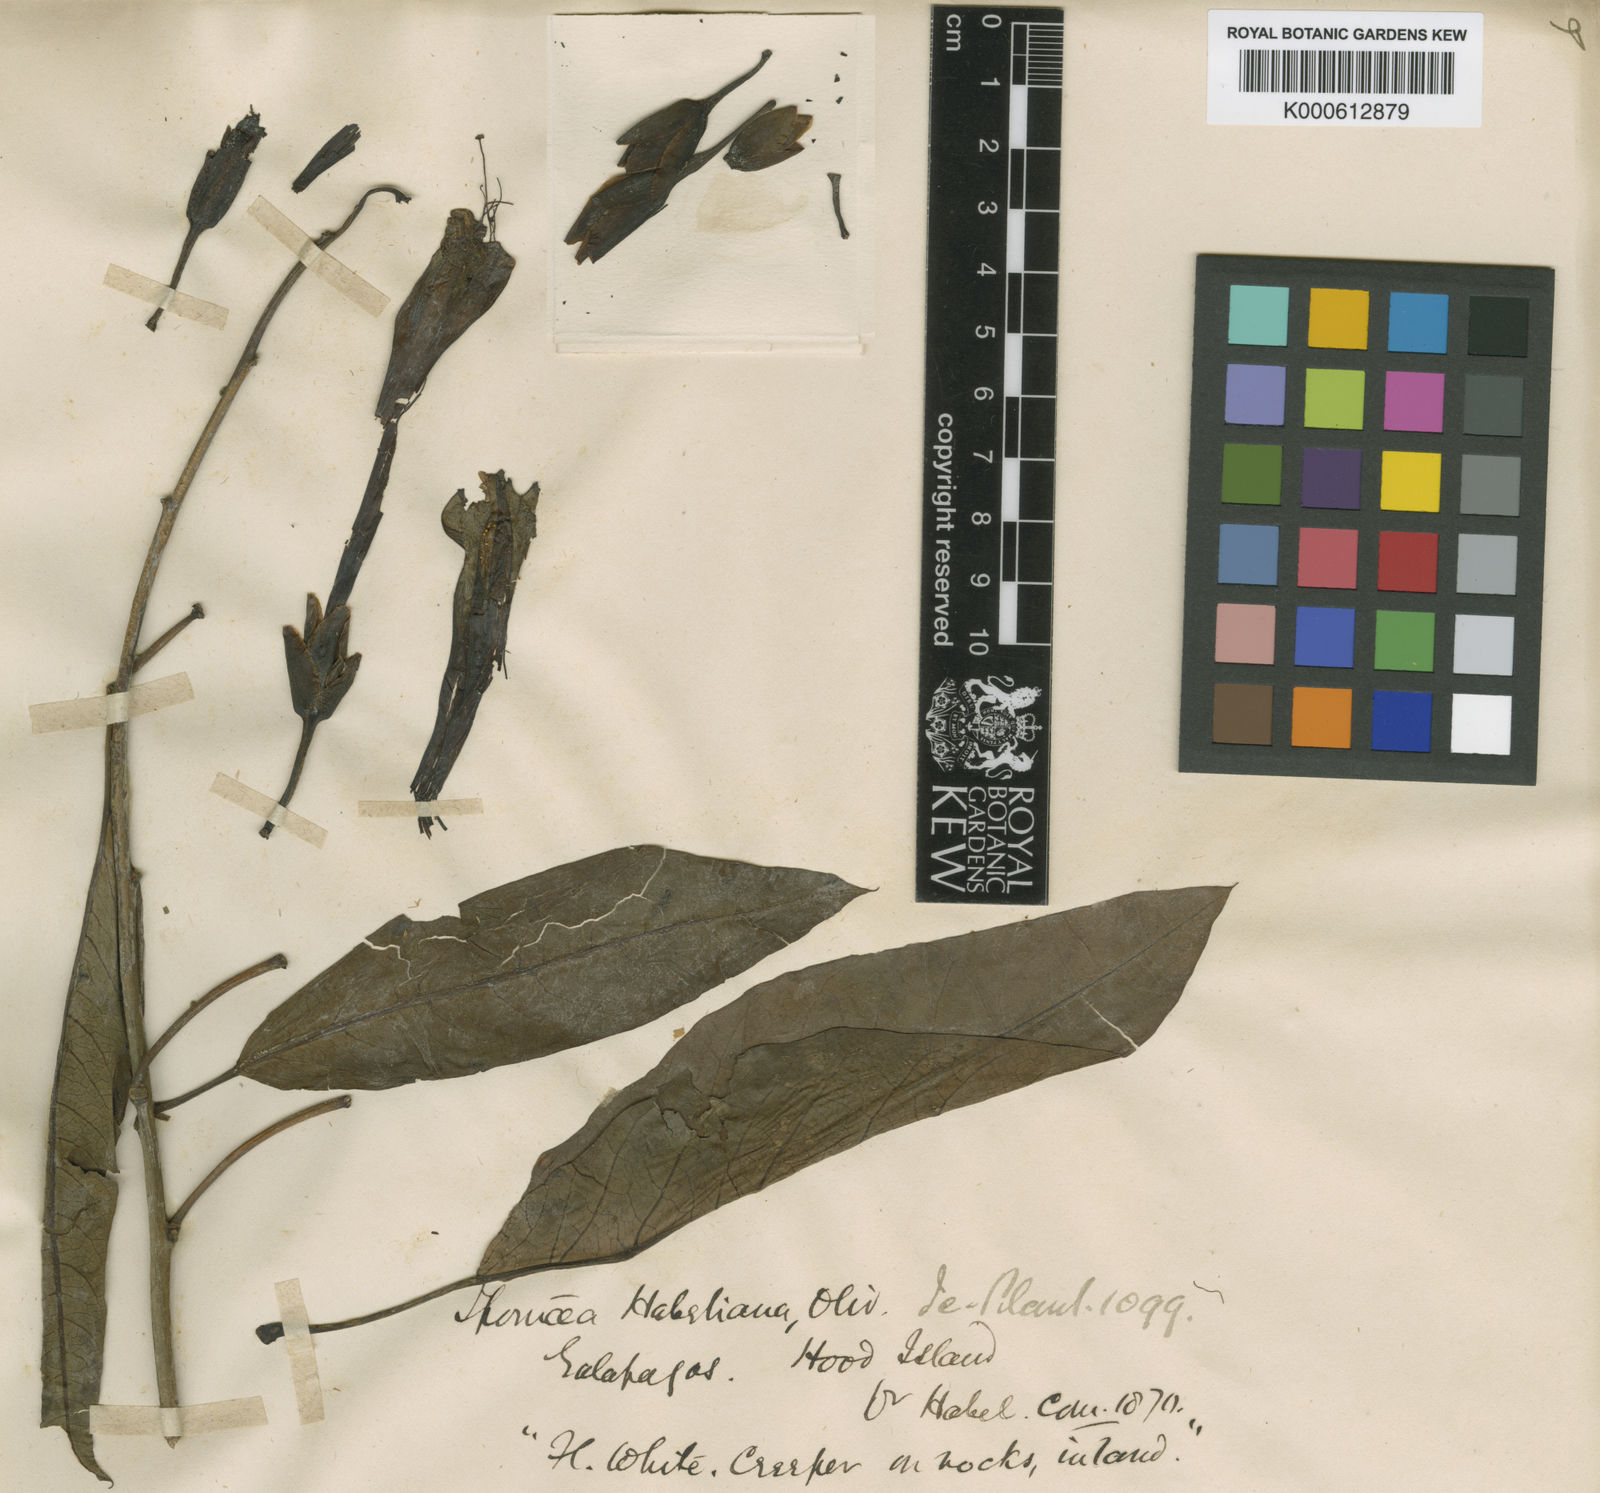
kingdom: Plantae
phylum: Tracheophyta
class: Magnoliopsida
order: Solanales
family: Convolvulaceae
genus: Ipomoea
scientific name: Ipomoea habeliana
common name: Lava morning glory
